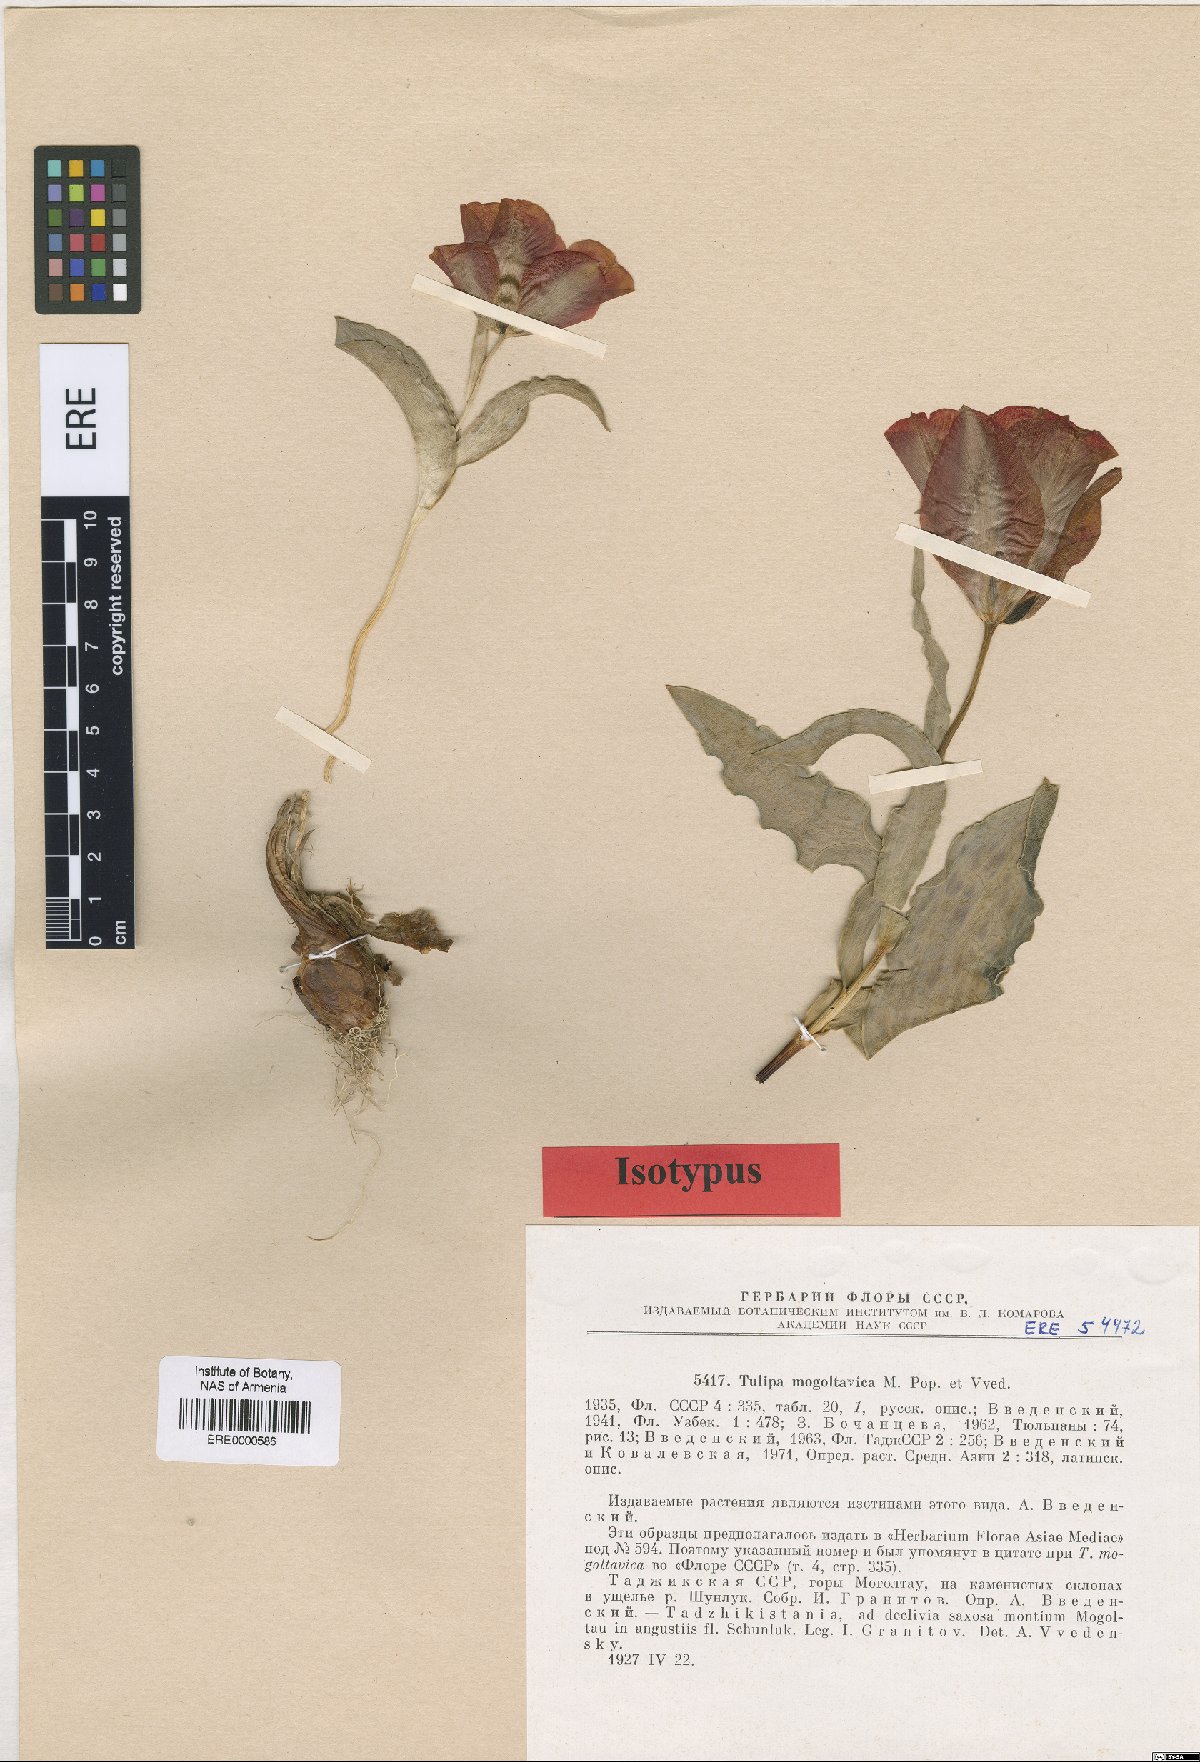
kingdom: Plantae
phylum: Tracheophyta
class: Liliopsida
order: Liliales
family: Liliaceae
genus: Tulipa
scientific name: Tulipa greigii
